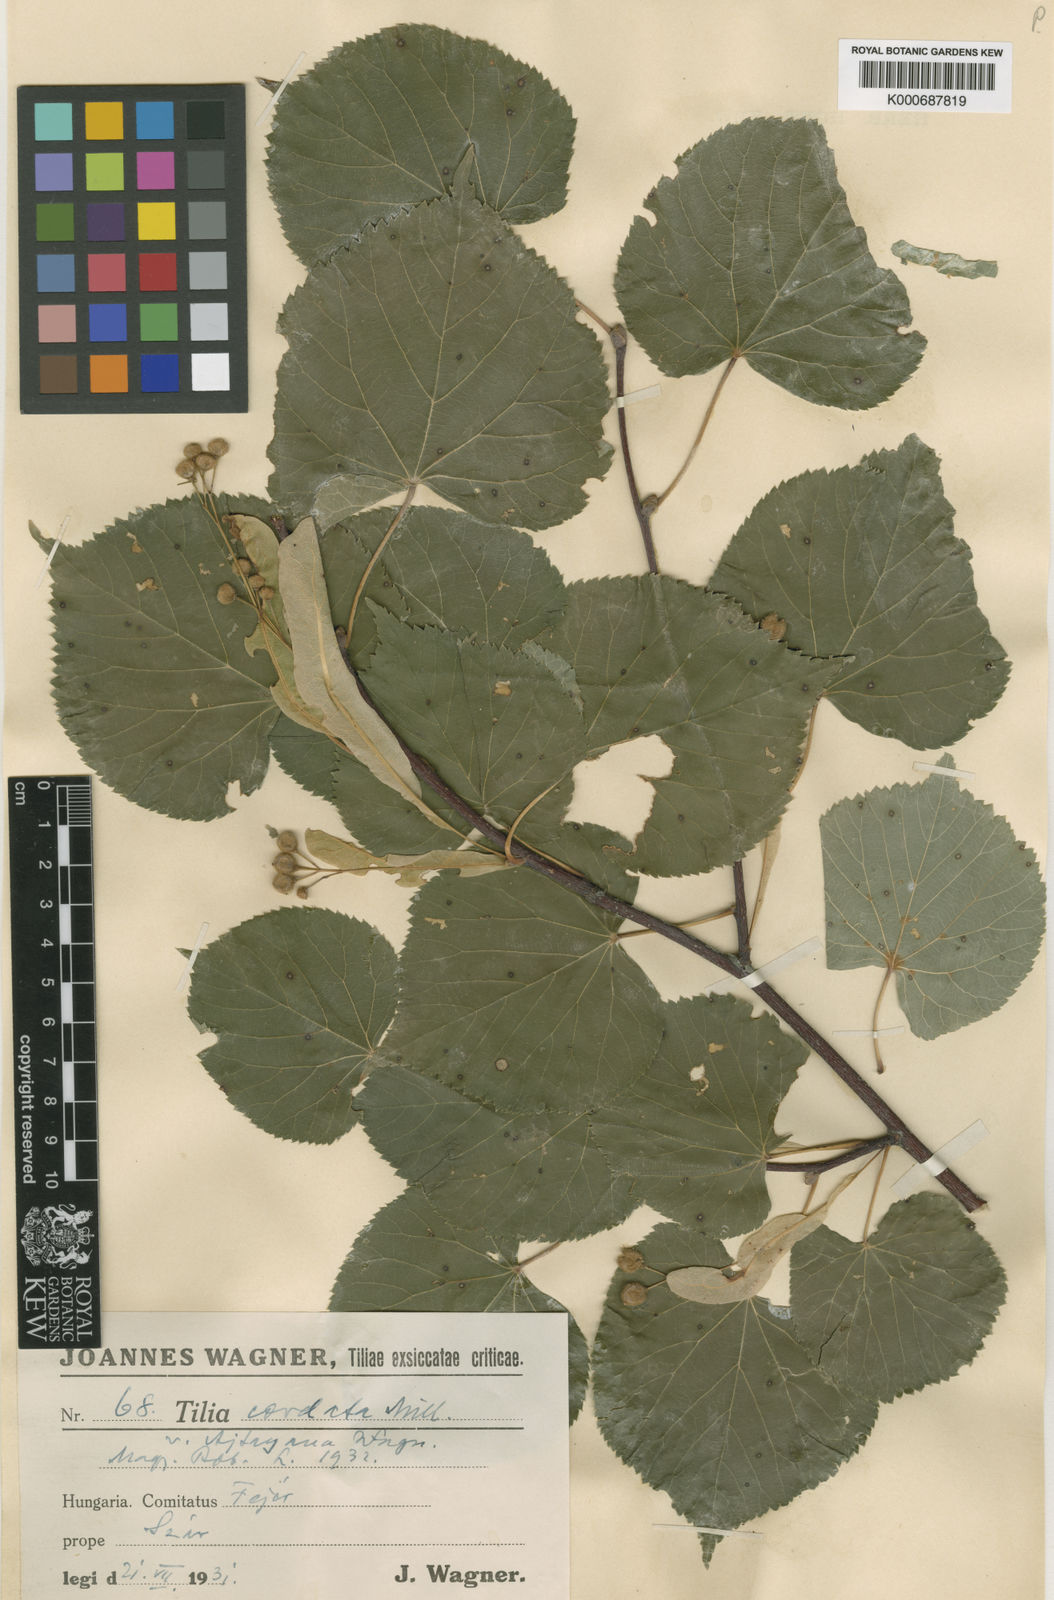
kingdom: Plantae
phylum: Tracheophyta
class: Magnoliopsida
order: Malvales
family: Malvaceae
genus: Tilia
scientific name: Tilia cordata
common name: Small-leaved lime
